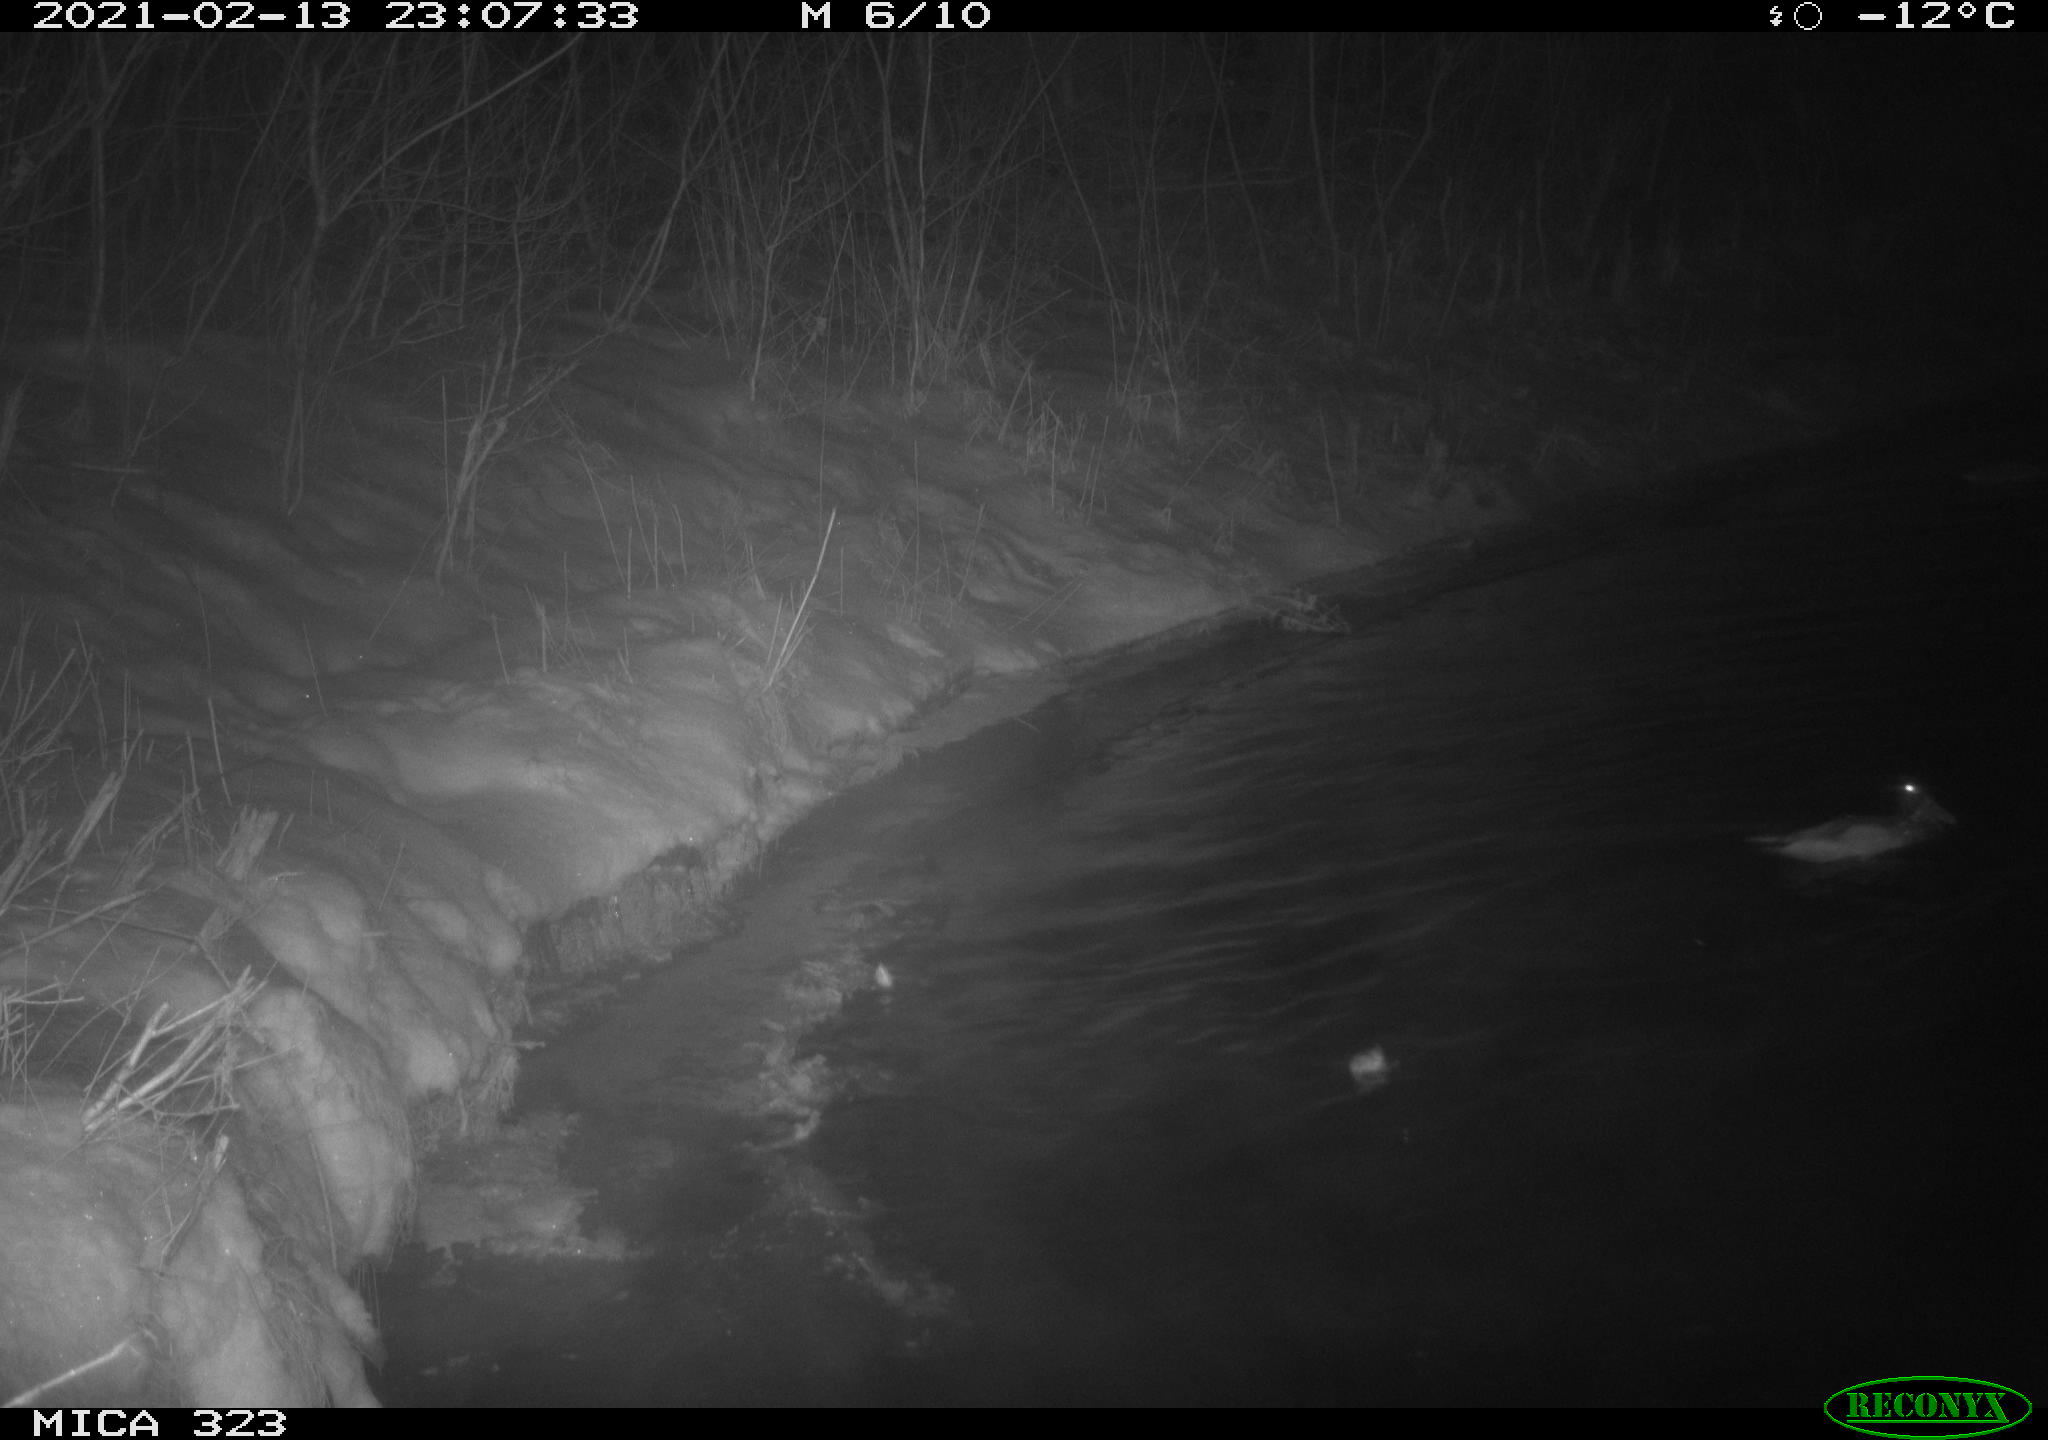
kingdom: Animalia
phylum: Chordata
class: Aves
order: Anseriformes
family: Anatidae
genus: Anas
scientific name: Anas platyrhynchos
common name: Mallard
